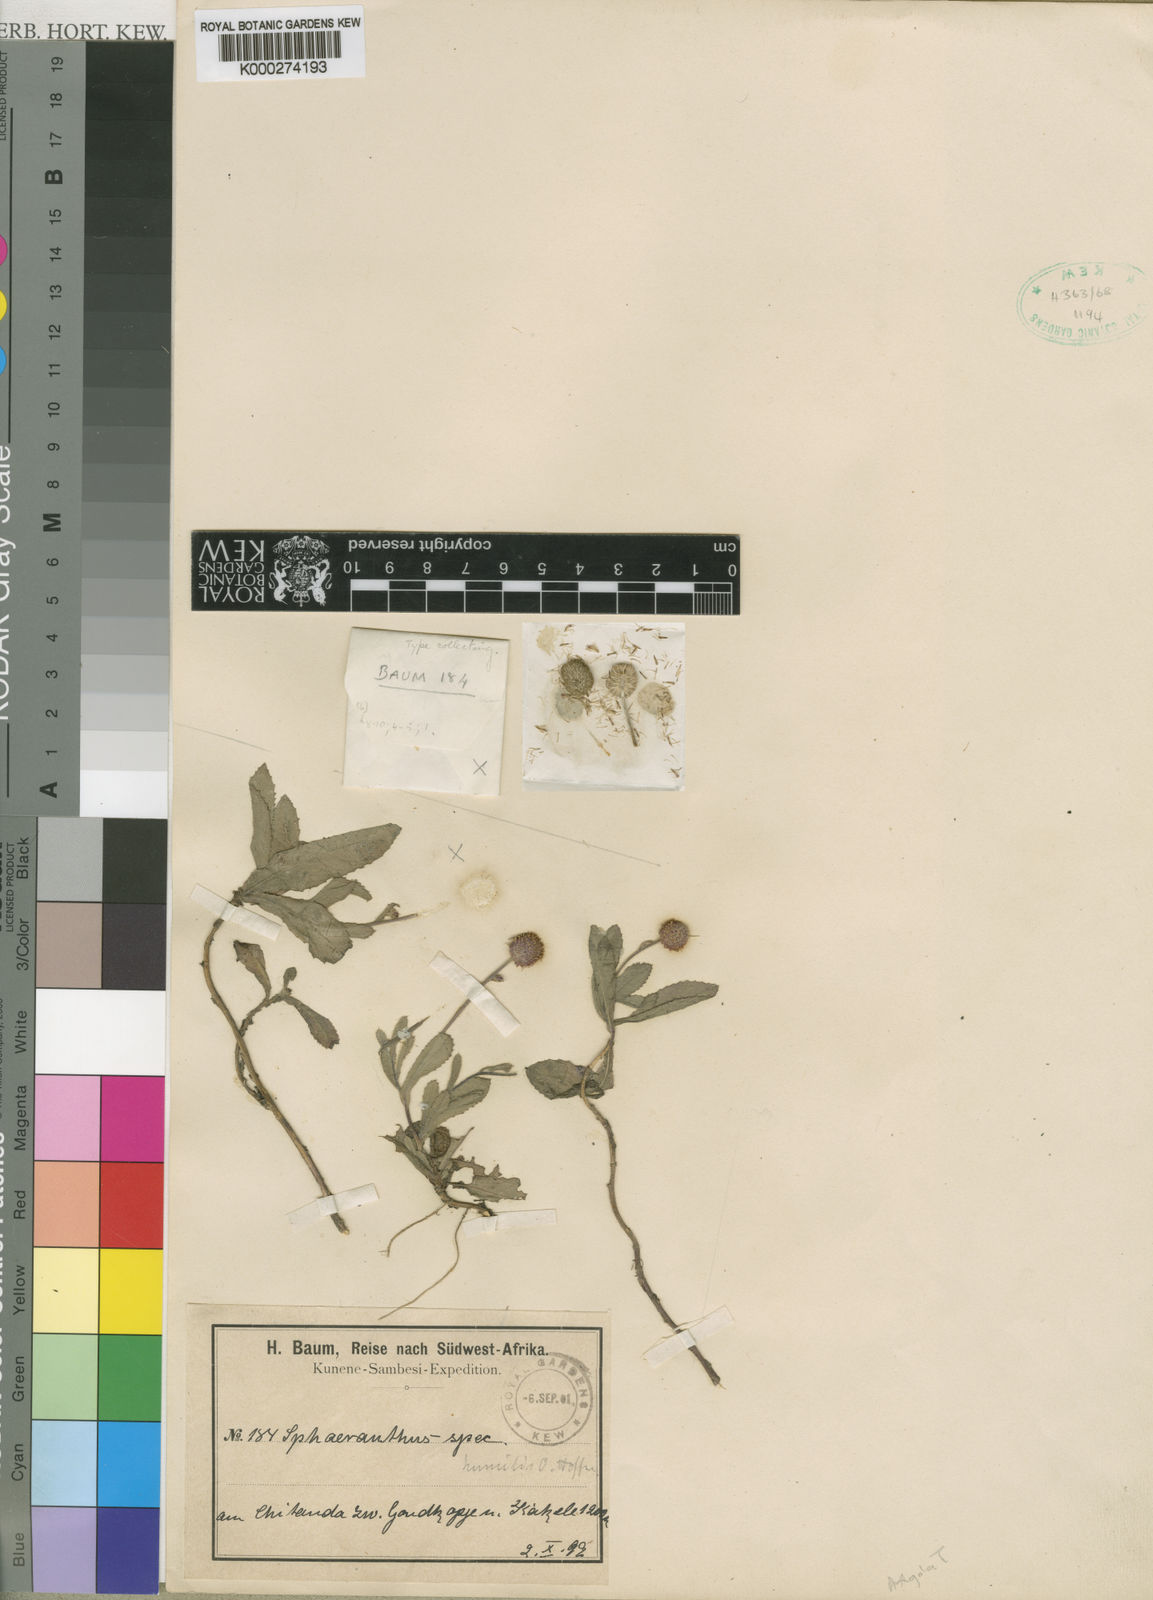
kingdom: Plantae
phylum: Tracheophyta
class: Magnoliopsida
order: Asterales
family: Asteraceae
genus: Sphaeranthus
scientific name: Sphaeranthus flexuosus
